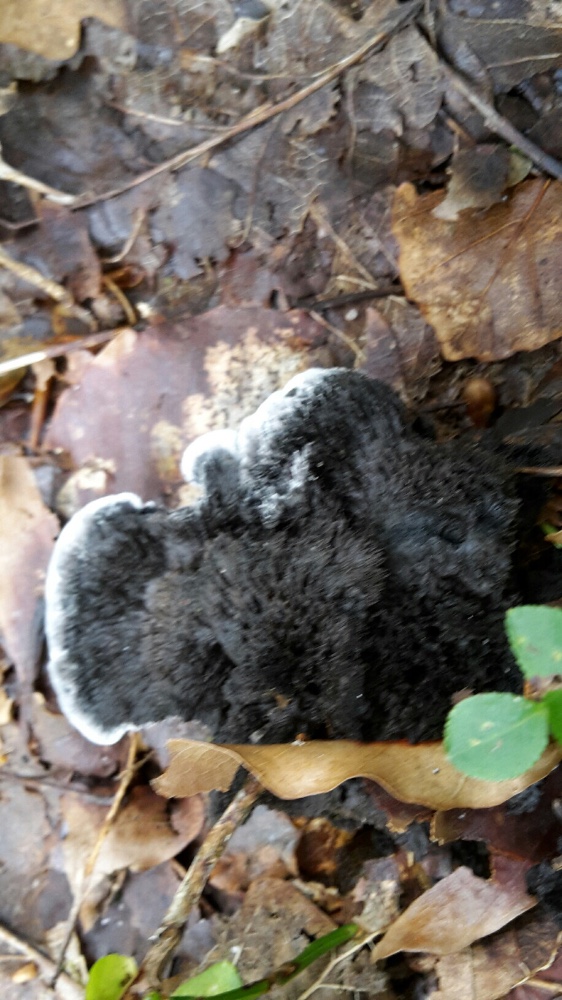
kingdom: Fungi
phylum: Basidiomycota
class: Agaricomycetes
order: Thelephorales
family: Thelephoraceae
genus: Phellodon
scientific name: Phellodon
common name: mørk duftpigsvamp
